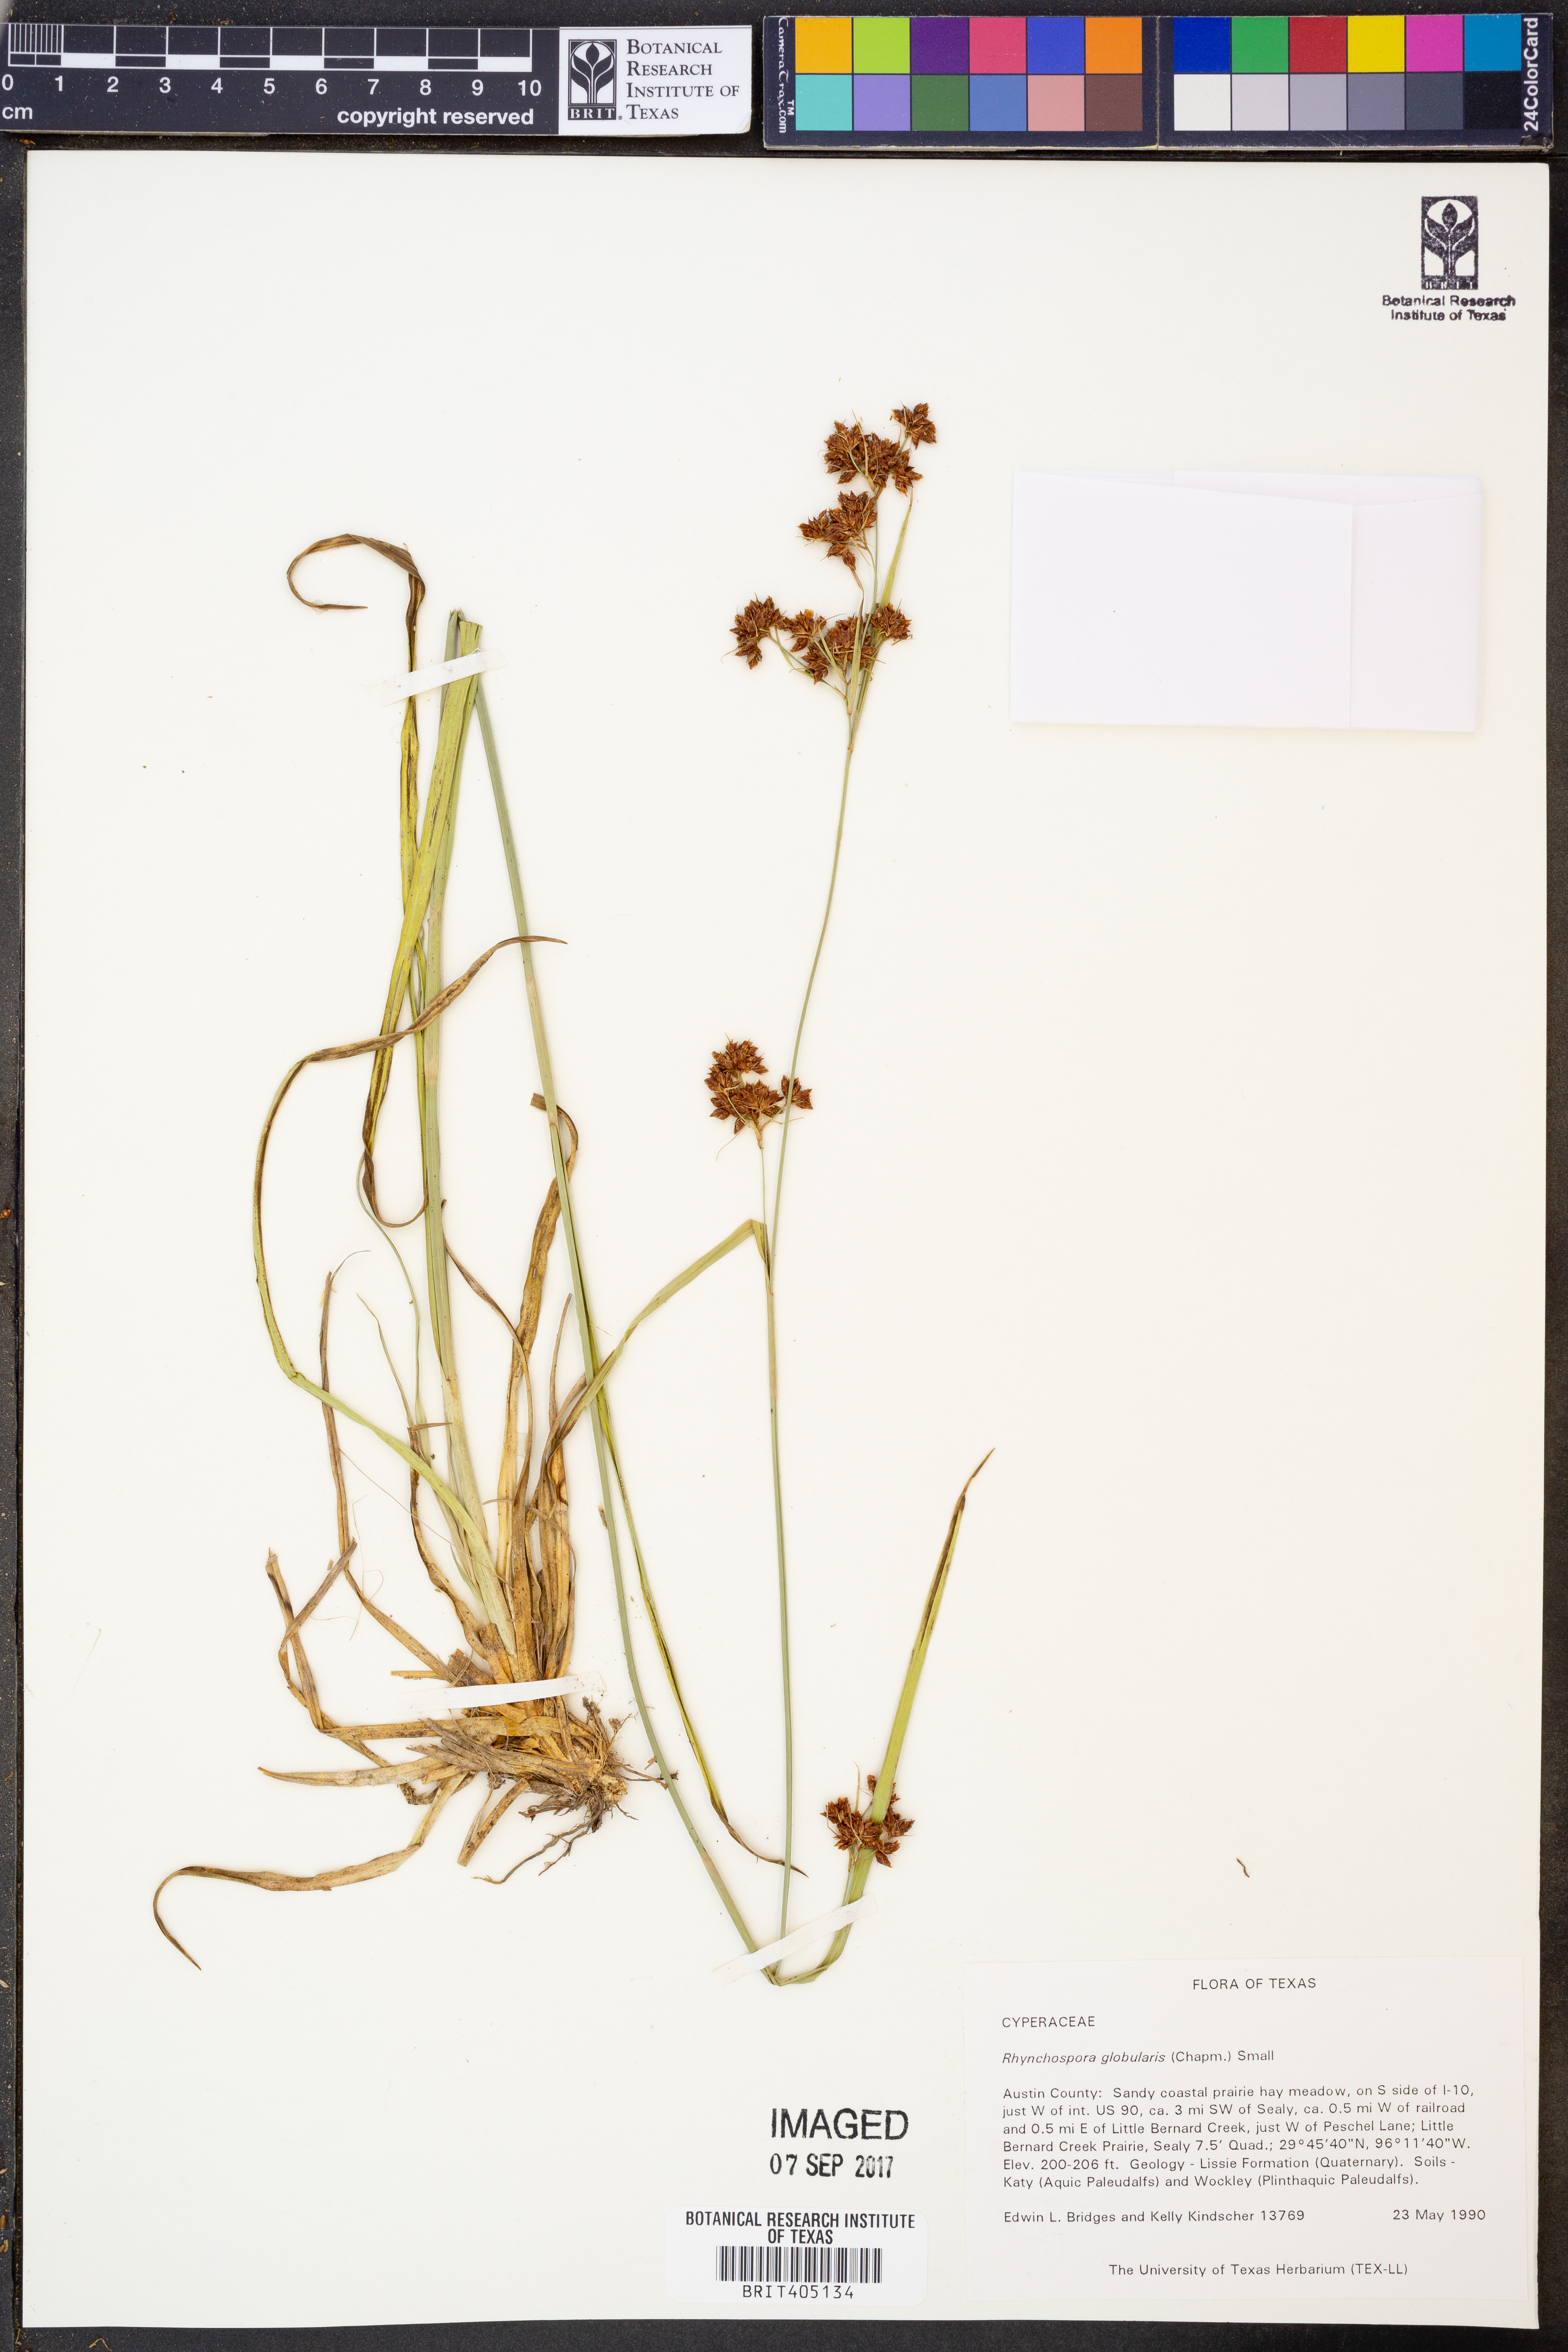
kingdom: Plantae
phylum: Tracheophyta
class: Liliopsida
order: Poales
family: Cyperaceae
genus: Rhynchospora
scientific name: Rhynchospora globularis
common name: Globe beaksedge
